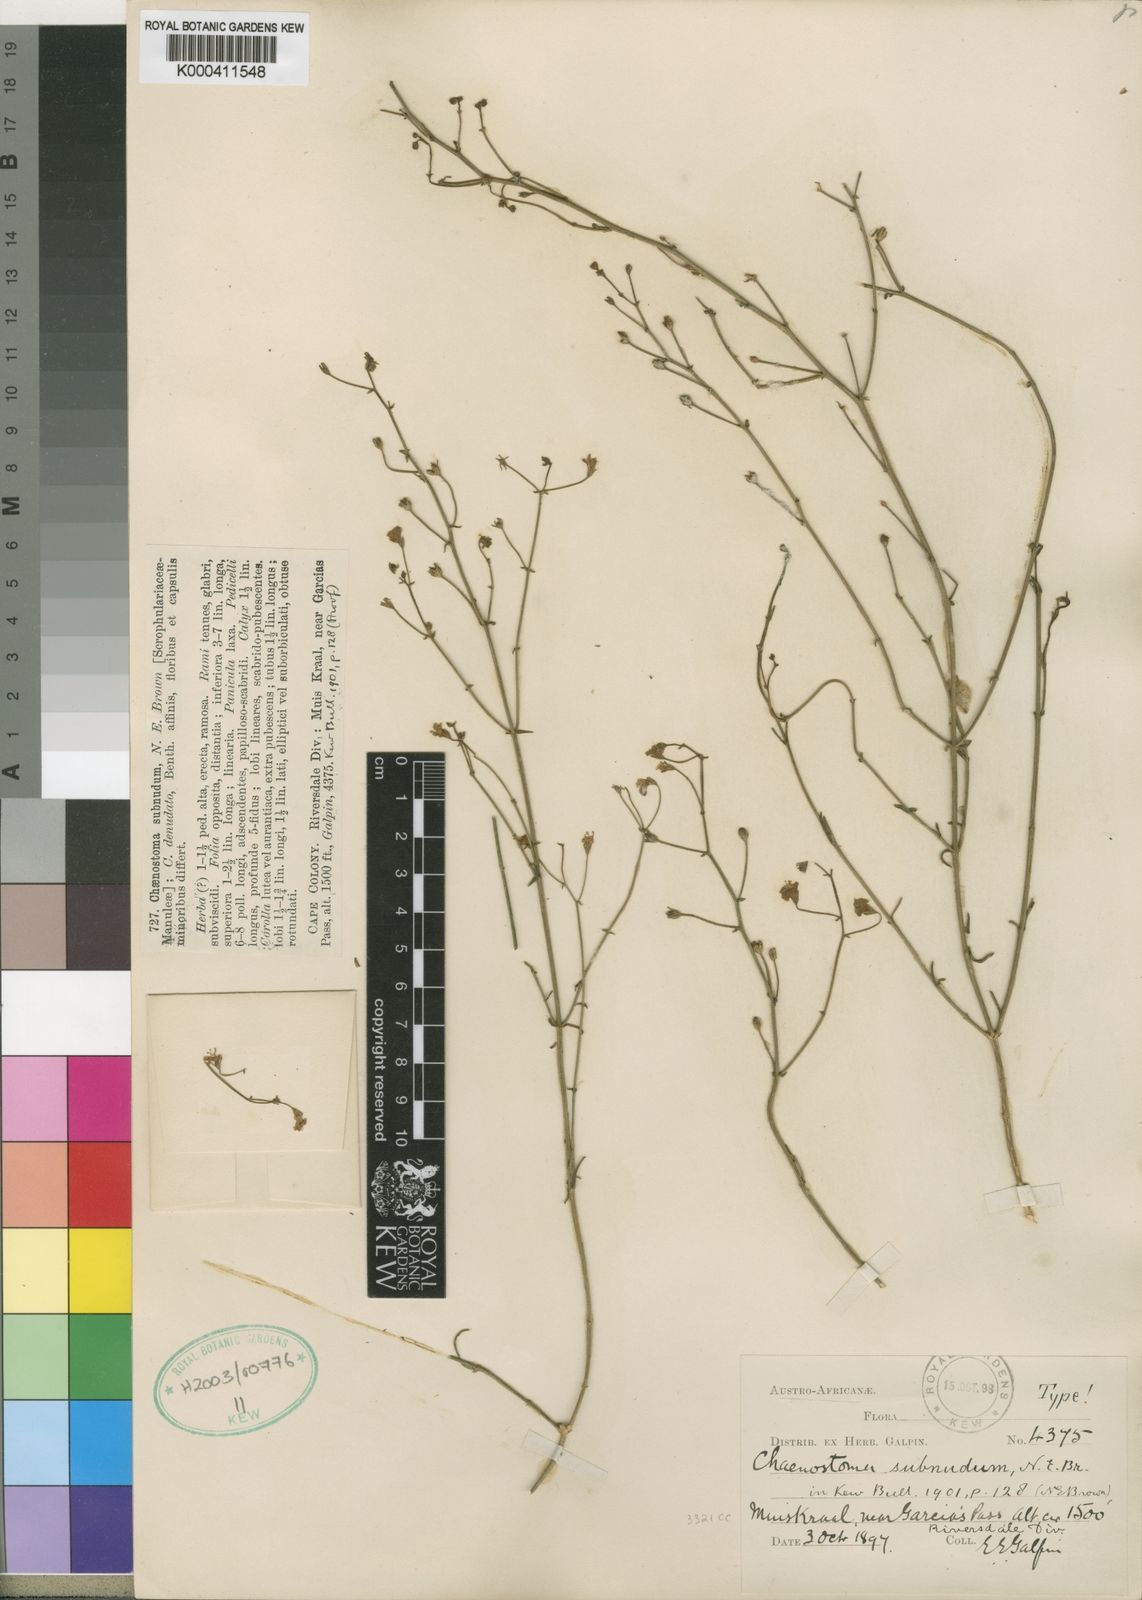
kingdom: Plantae
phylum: Tracheophyta
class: Magnoliopsida
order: Lamiales
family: Scrophulariaceae
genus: Chaenostoma
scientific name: Chaenostoma subnudum
